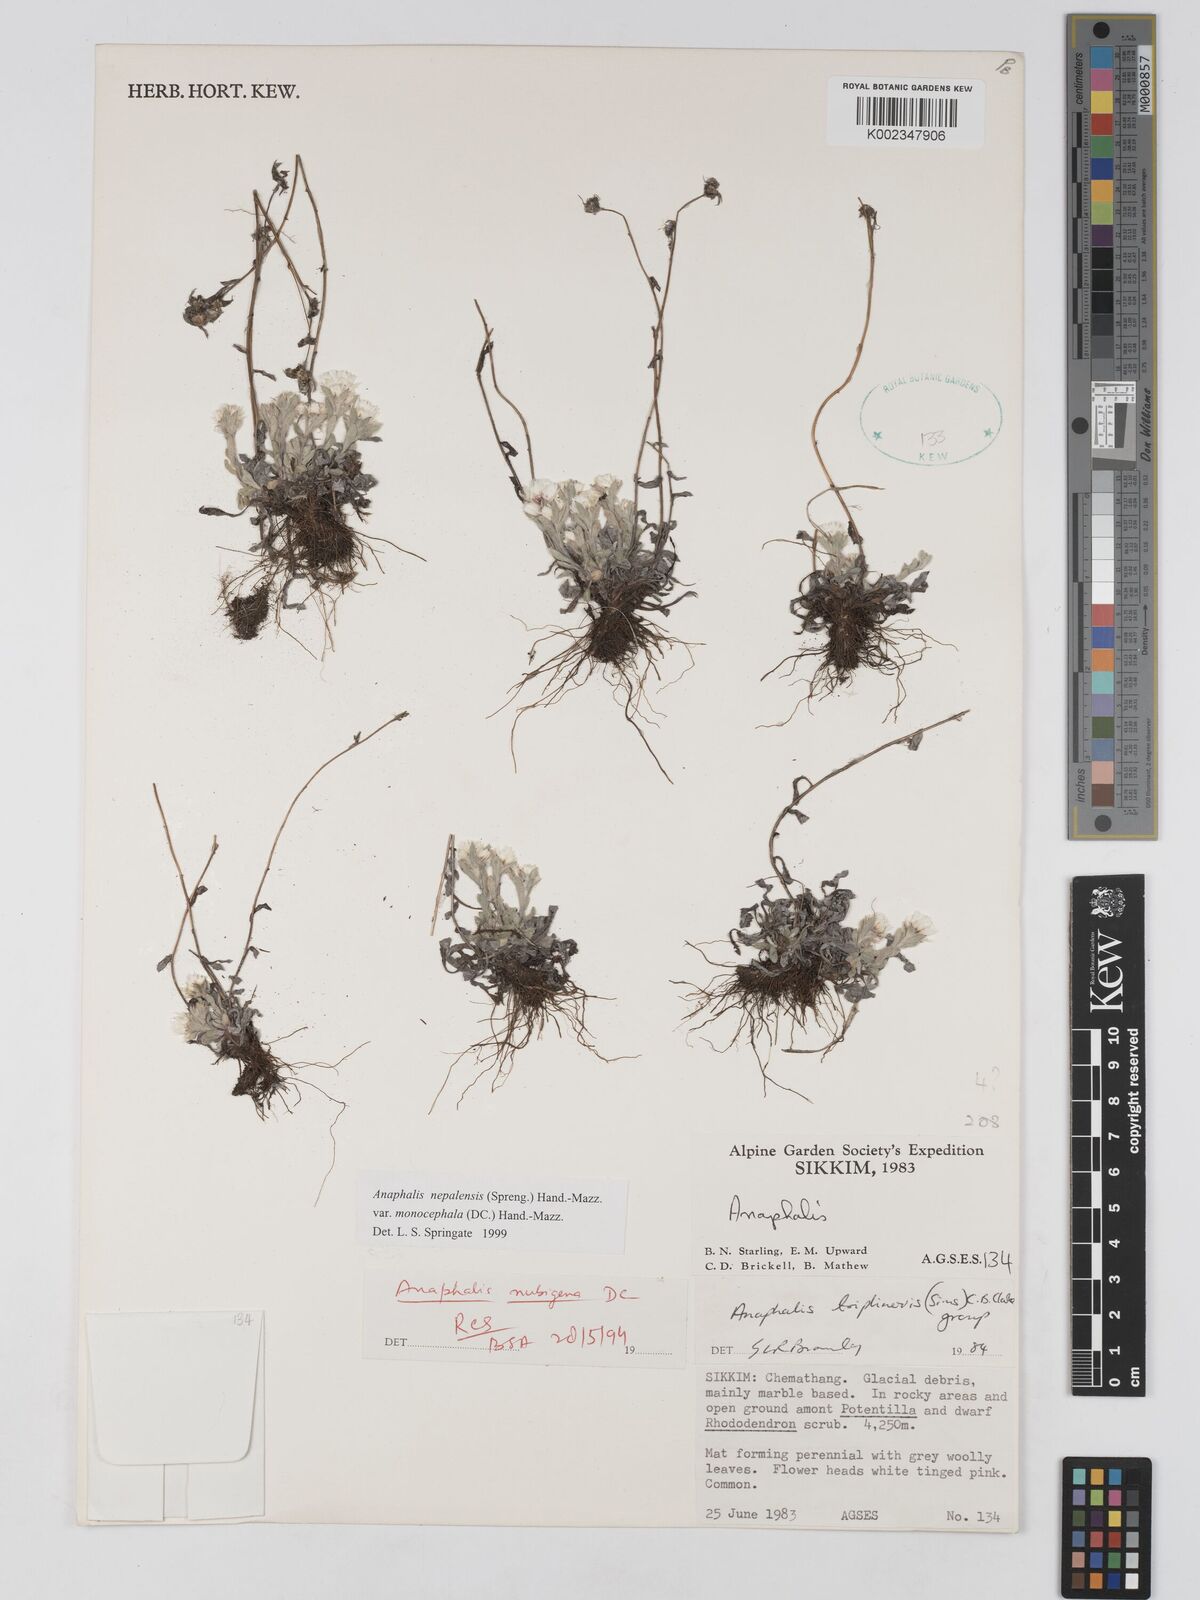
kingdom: Plantae
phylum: Tracheophyta
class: Magnoliopsida
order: Asterales
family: Asteraceae
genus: Anaphalis
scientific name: Anaphalis nepalensis
